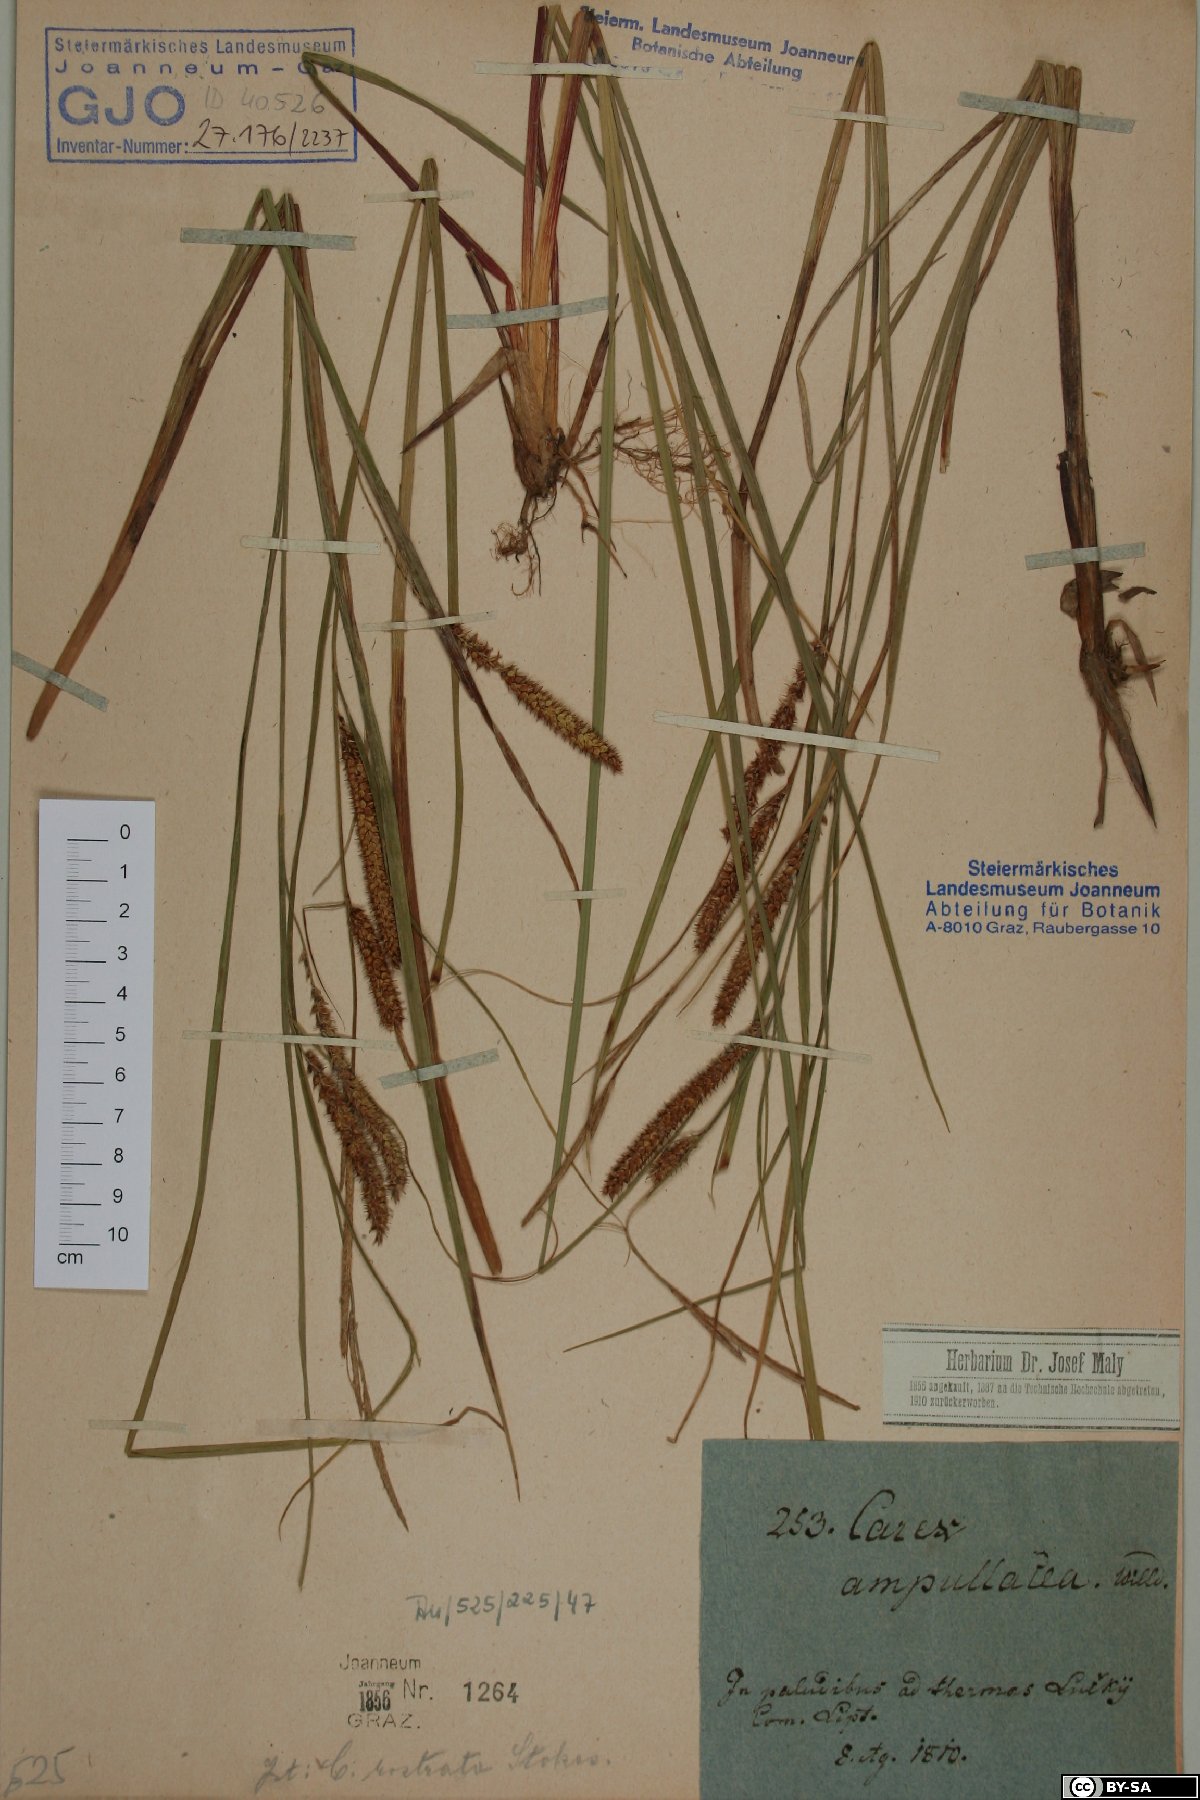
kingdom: Plantae
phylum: Tracheophyta
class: Liliopsida
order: Poales
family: Cyperaceae
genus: Carex
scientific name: Carex rostrata
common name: Bottle sedge
